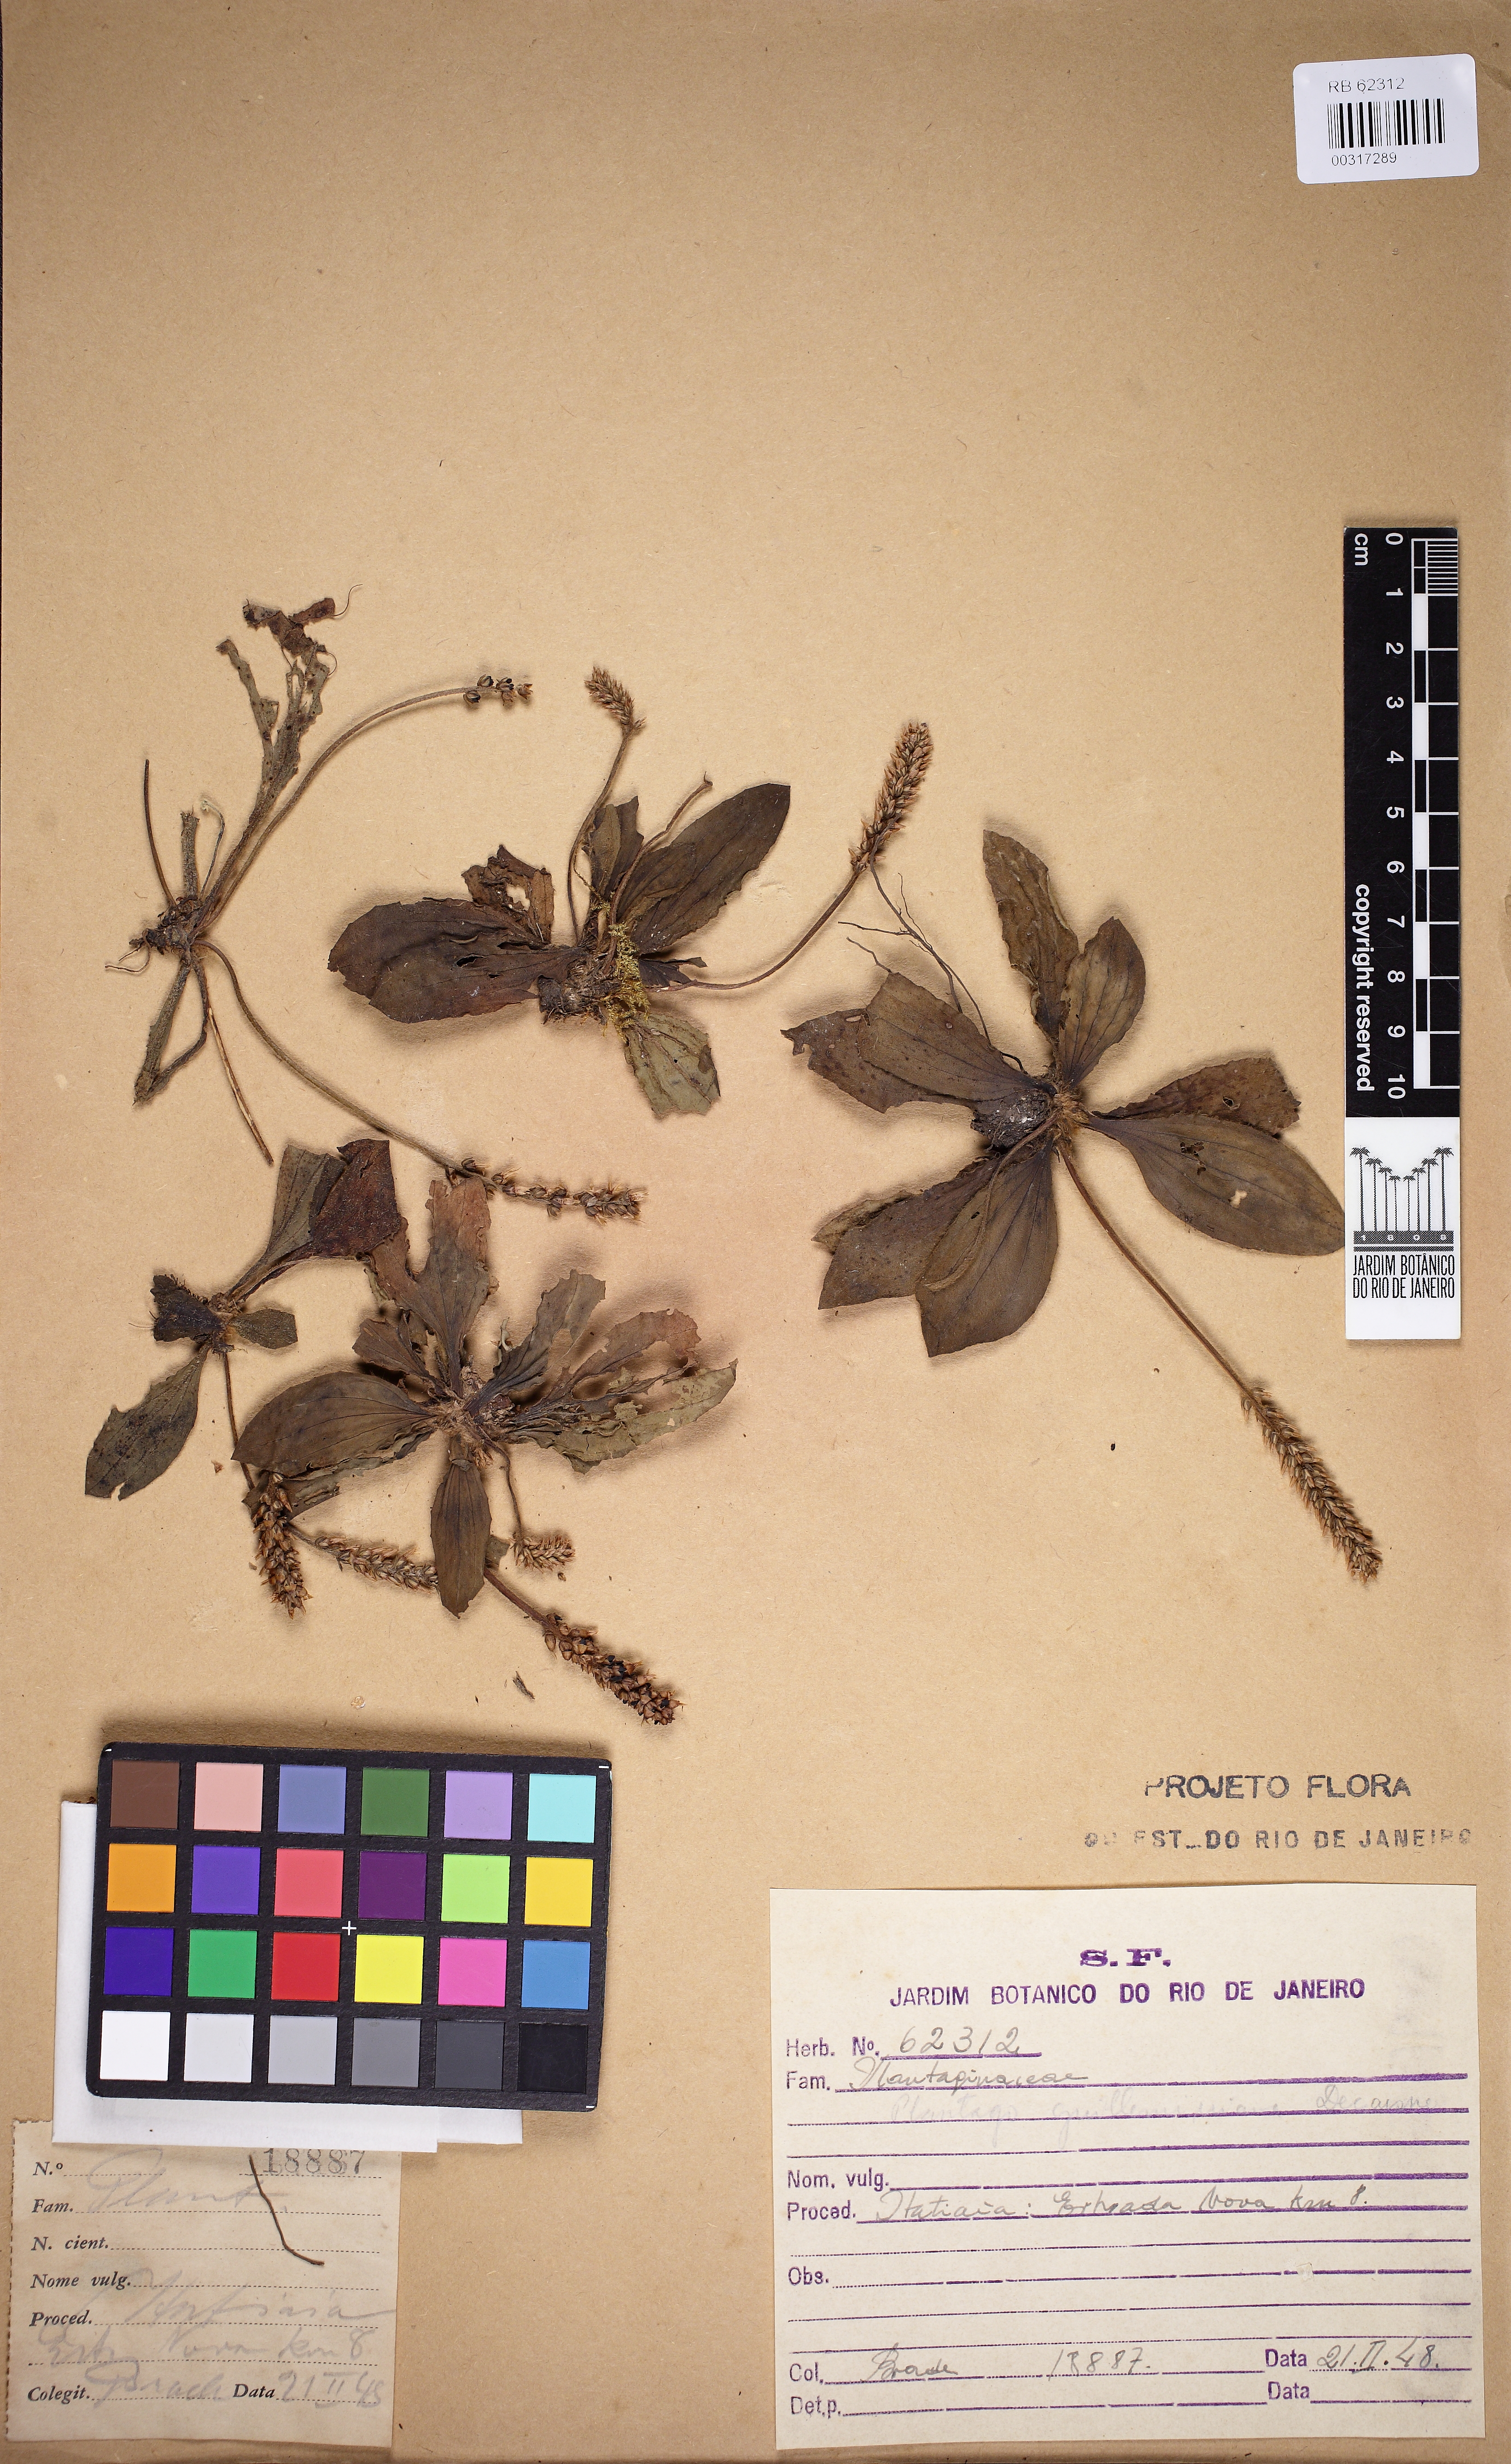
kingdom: Plantae
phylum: Tracheophyta
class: Magnoliopsida
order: Lamiales
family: Plantaginaceae
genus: Plantago
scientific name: Plantago guilleminiana
